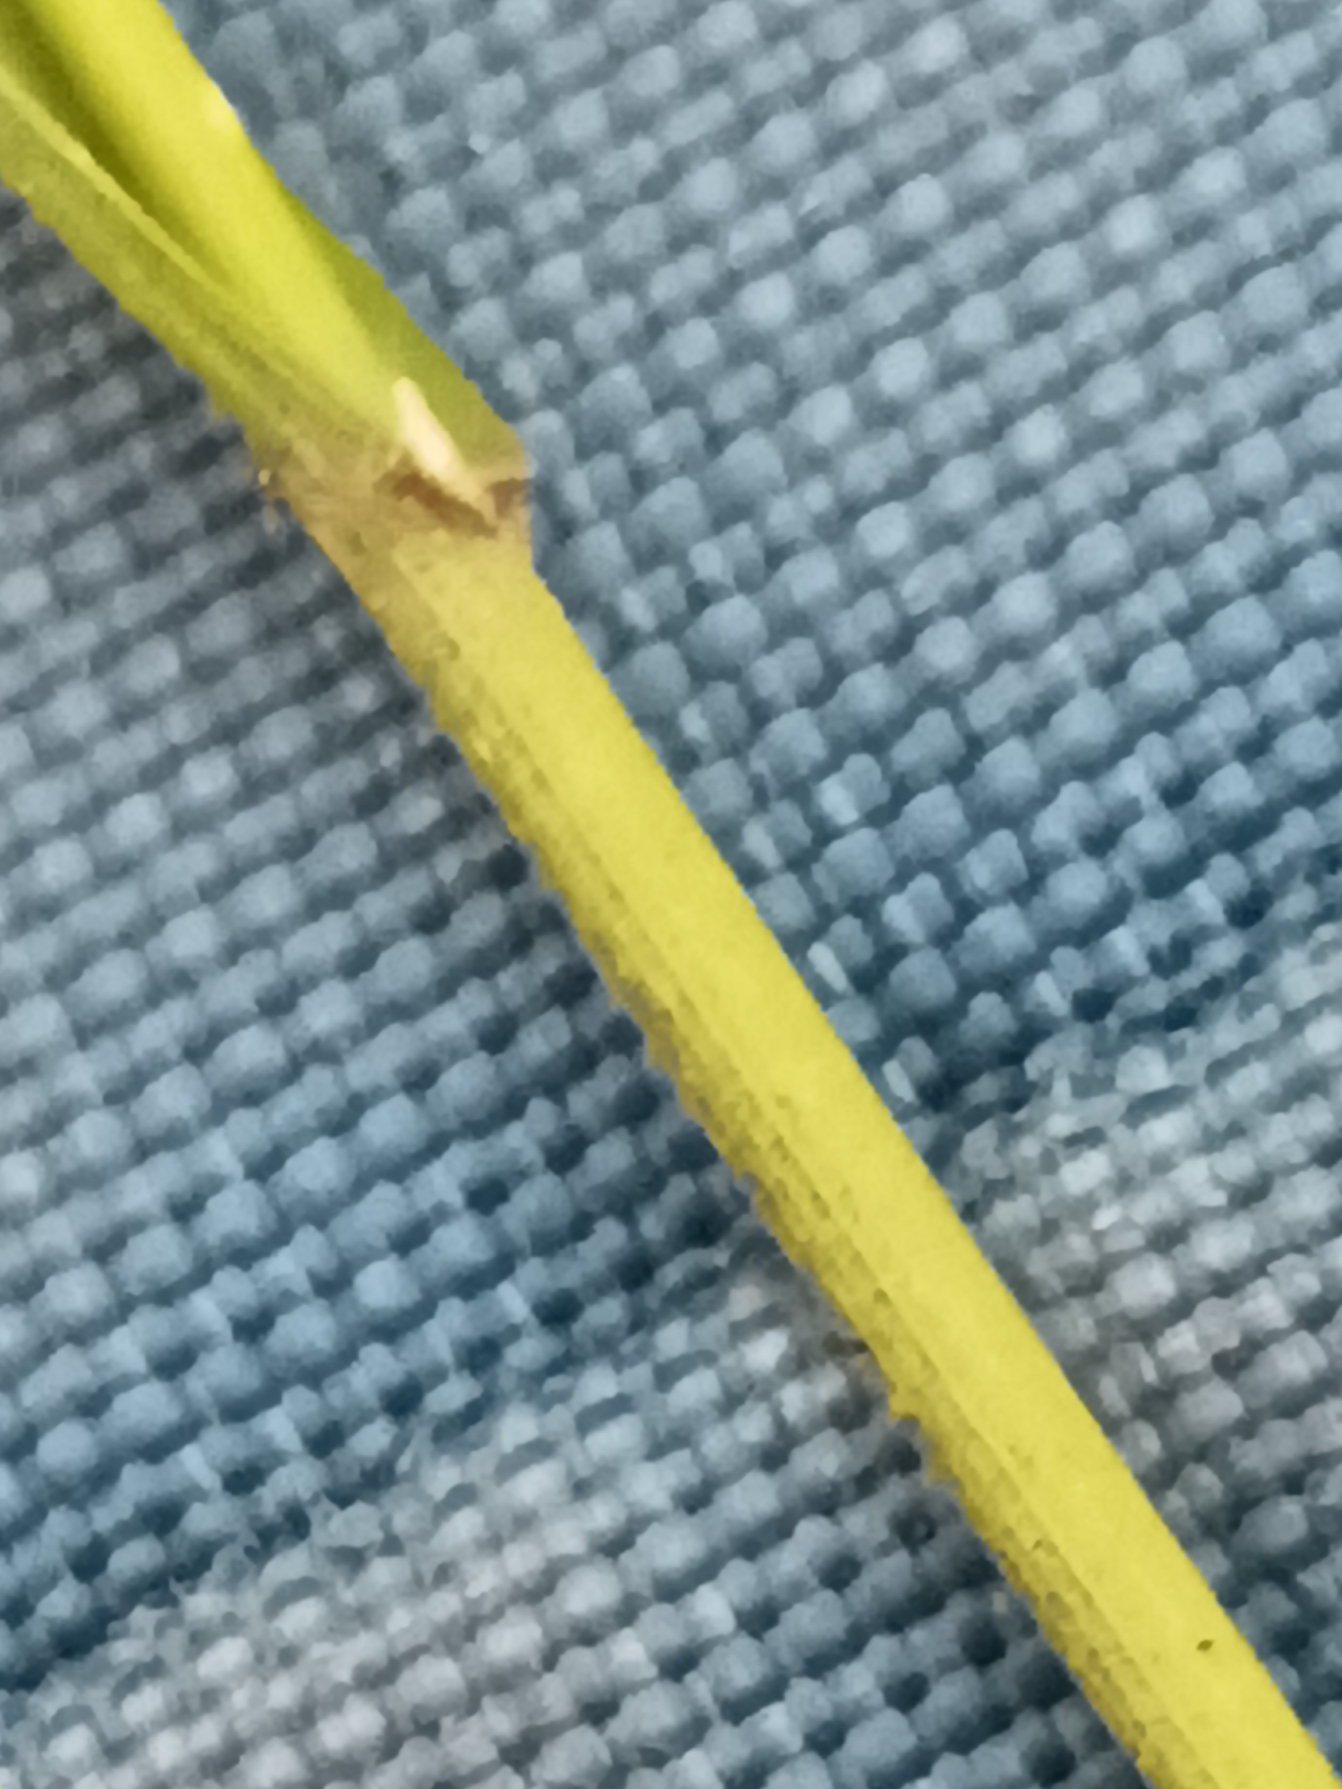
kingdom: Plantae
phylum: Tracheophyta
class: Liliopsida
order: Poales
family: Poaceae
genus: Melica
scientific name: Melica uniflora
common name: Enblomstret flitteraks
